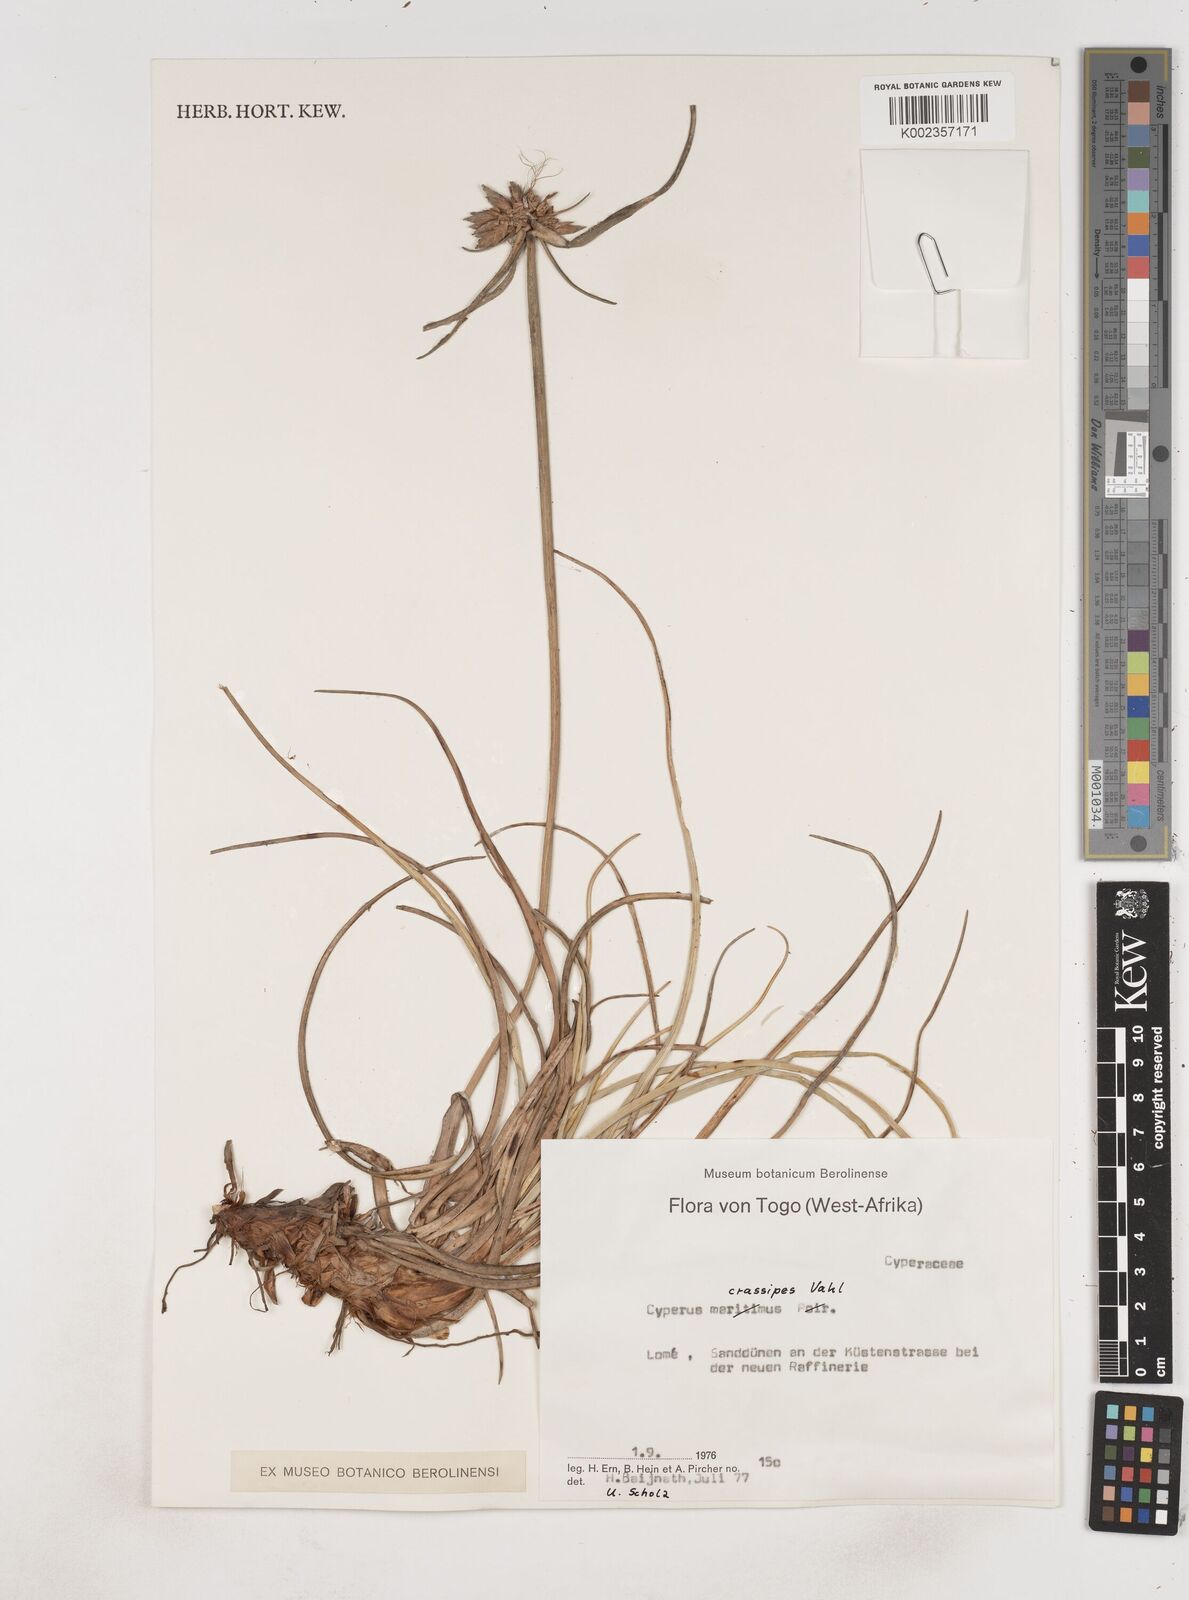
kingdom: Plantae
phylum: Tracheophyta
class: Liliopsida
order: Poales
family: Cyperaceae
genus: Cyperus
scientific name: Cyperus crassipes
